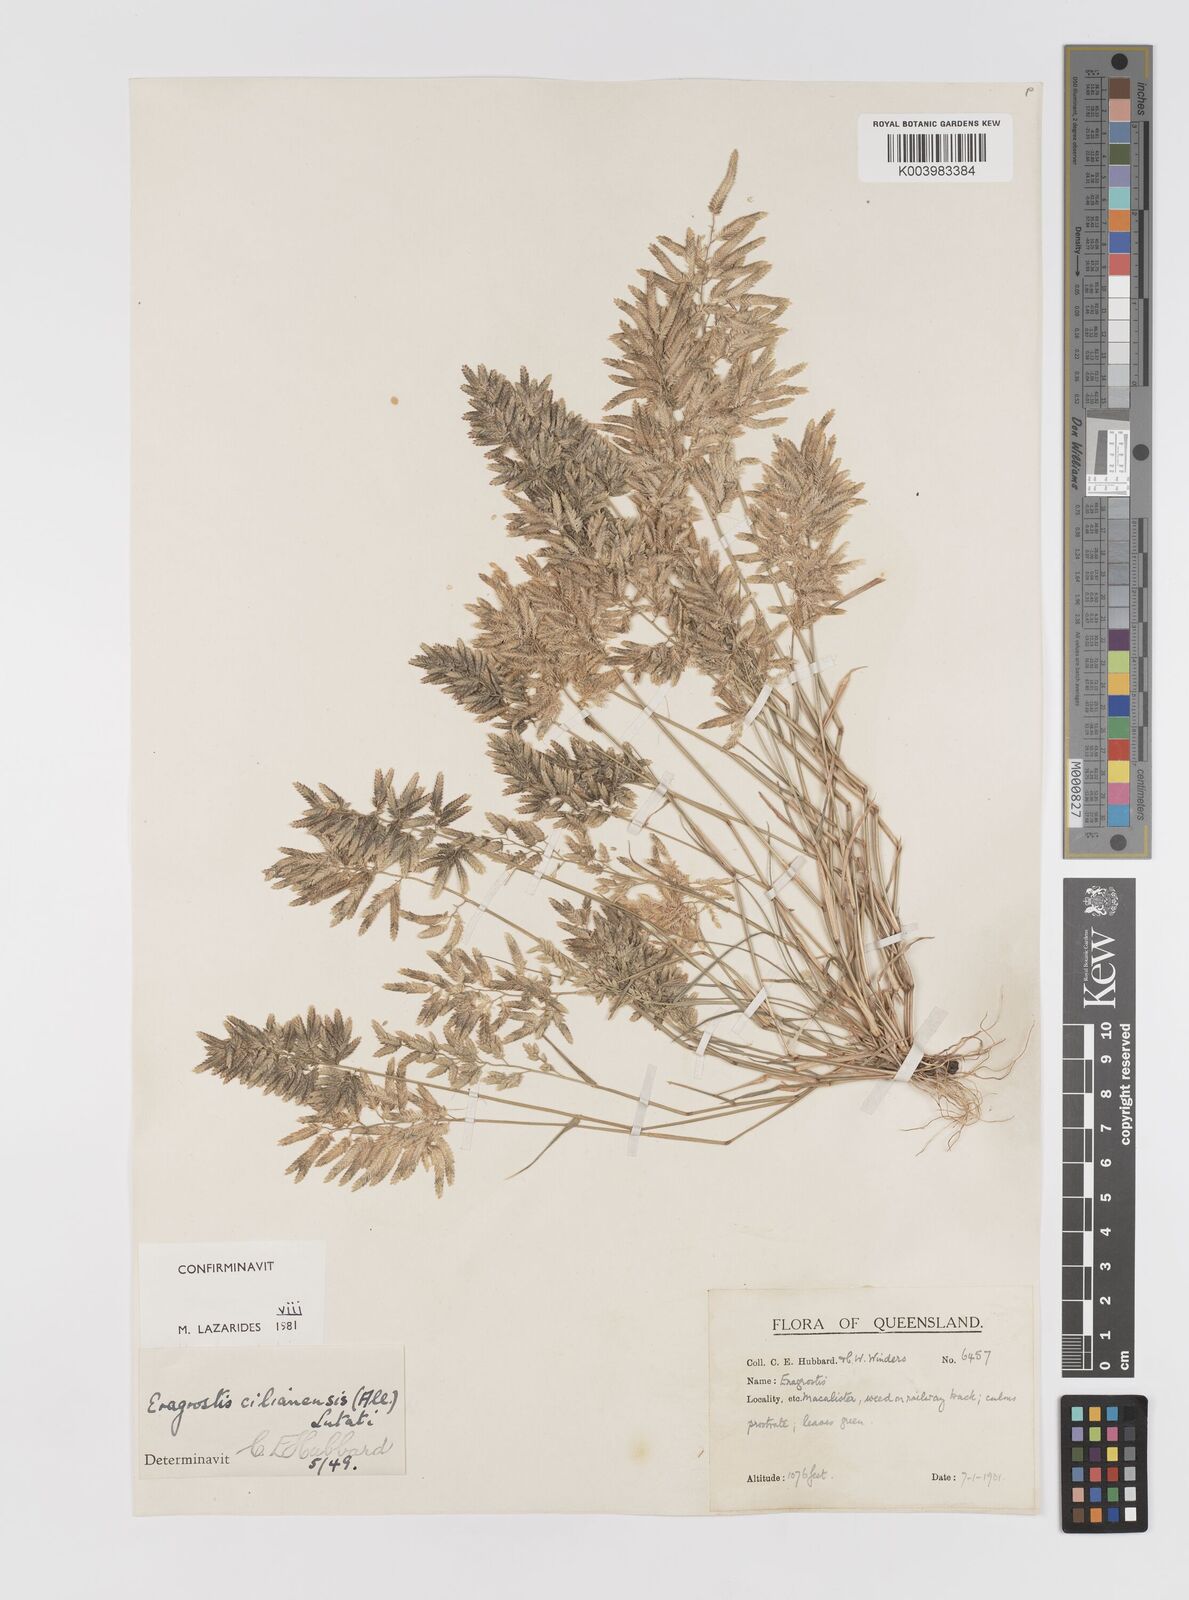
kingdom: Plantae
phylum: Tracheophyta
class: Liliopsida
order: Poales
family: Poaceae
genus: Eragrostis
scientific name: Eragrostis cilianensis
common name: Stinkgrass
